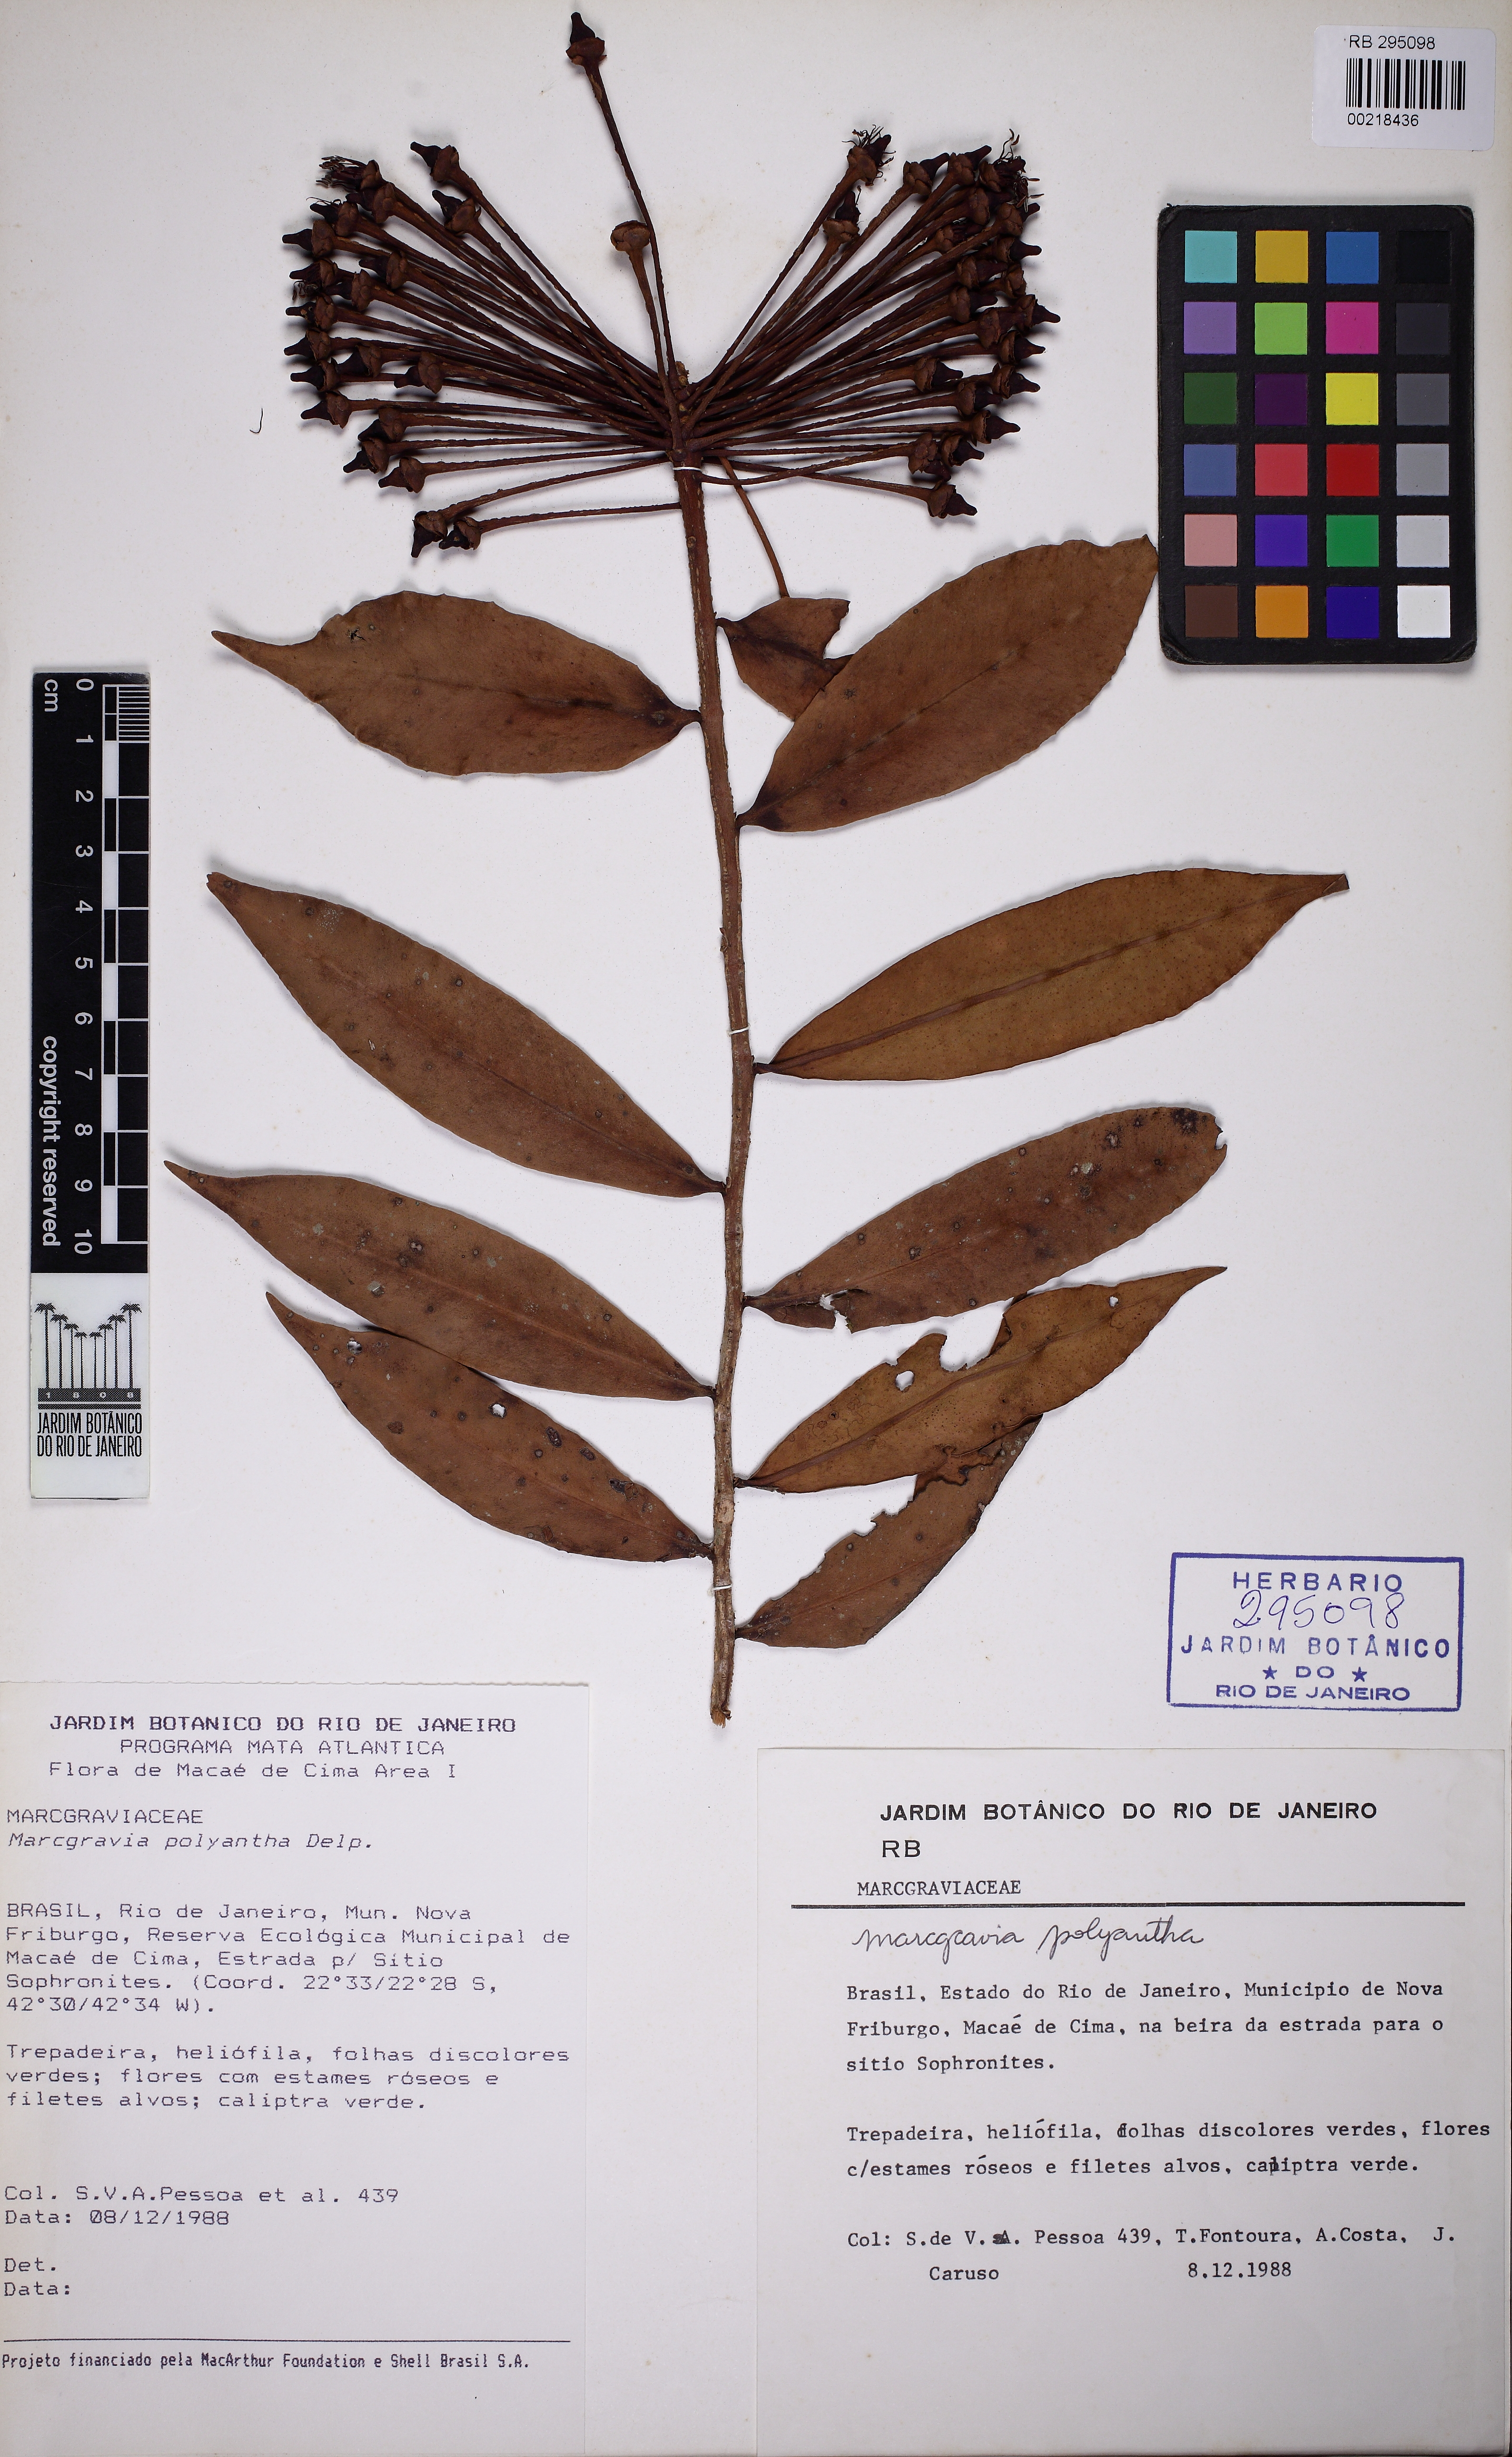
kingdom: Plantae
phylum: Tracheophyta
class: Magnoliopsida
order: Ericales
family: Marcgraviaceae
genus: Marcgravia
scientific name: Marcgravia polyantha
